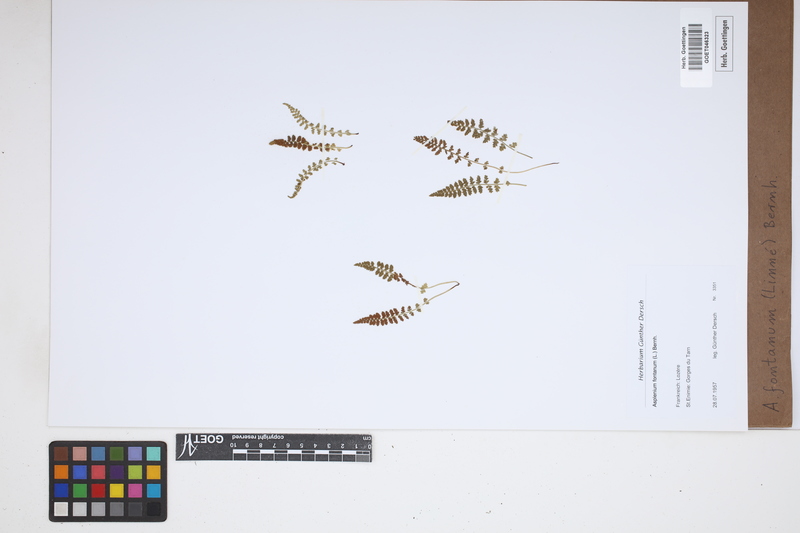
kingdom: Plantae
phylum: Tracheophyta
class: Polypodiopsida
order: Polypodiales
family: Aspleniaceae
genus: Asplenium
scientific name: Asplenium fontanum
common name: Fountain spleenwort
